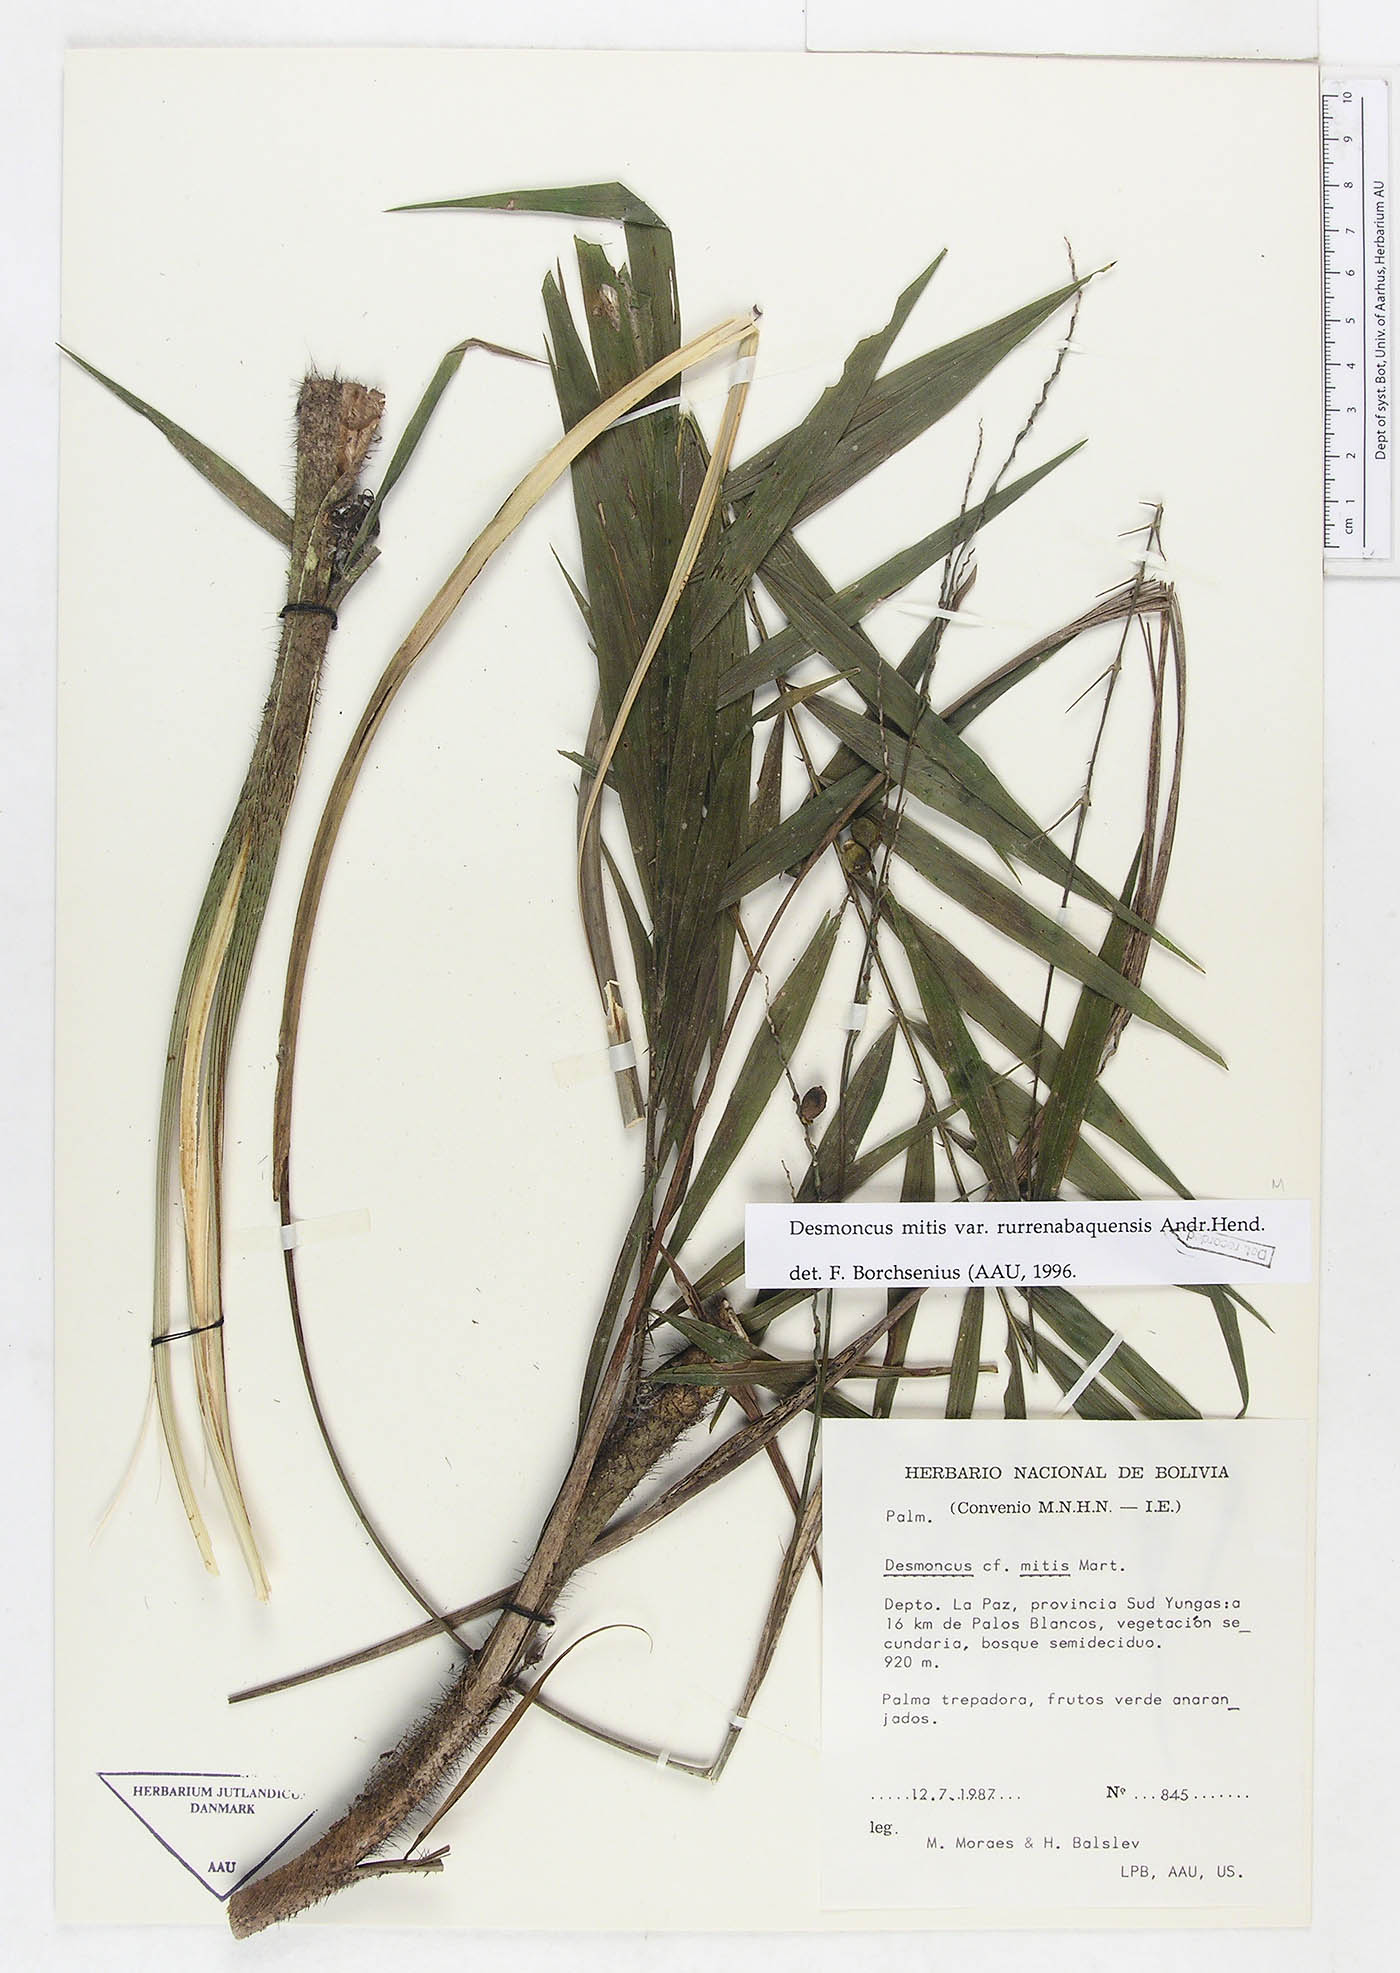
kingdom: Plantae
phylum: Tracheophyta
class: Liliopsida
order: Arecales
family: Arecaceae
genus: Desmoncus
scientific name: Desmoncus mitis
